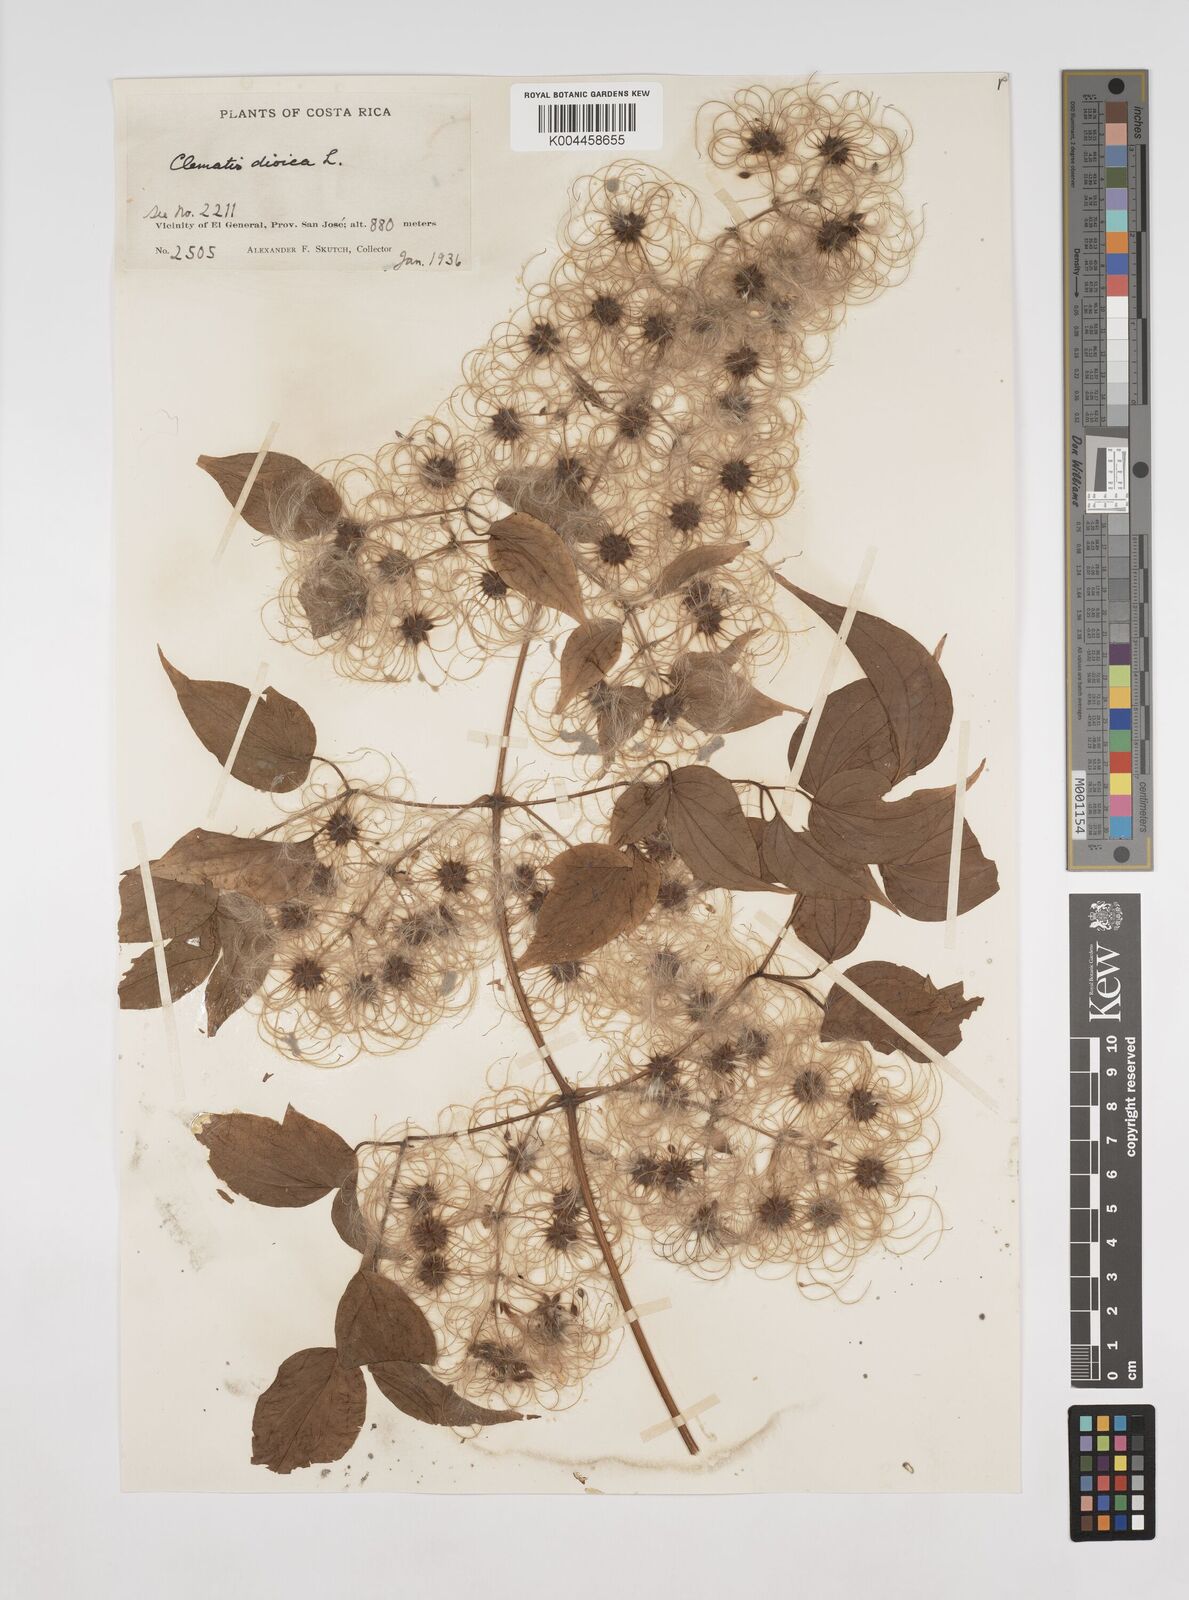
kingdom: Plantae
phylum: Tracheophyta
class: Magnoliopsida
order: Ranunculales
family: Ranunculaceae
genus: Clematis
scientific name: Clematis dioica
